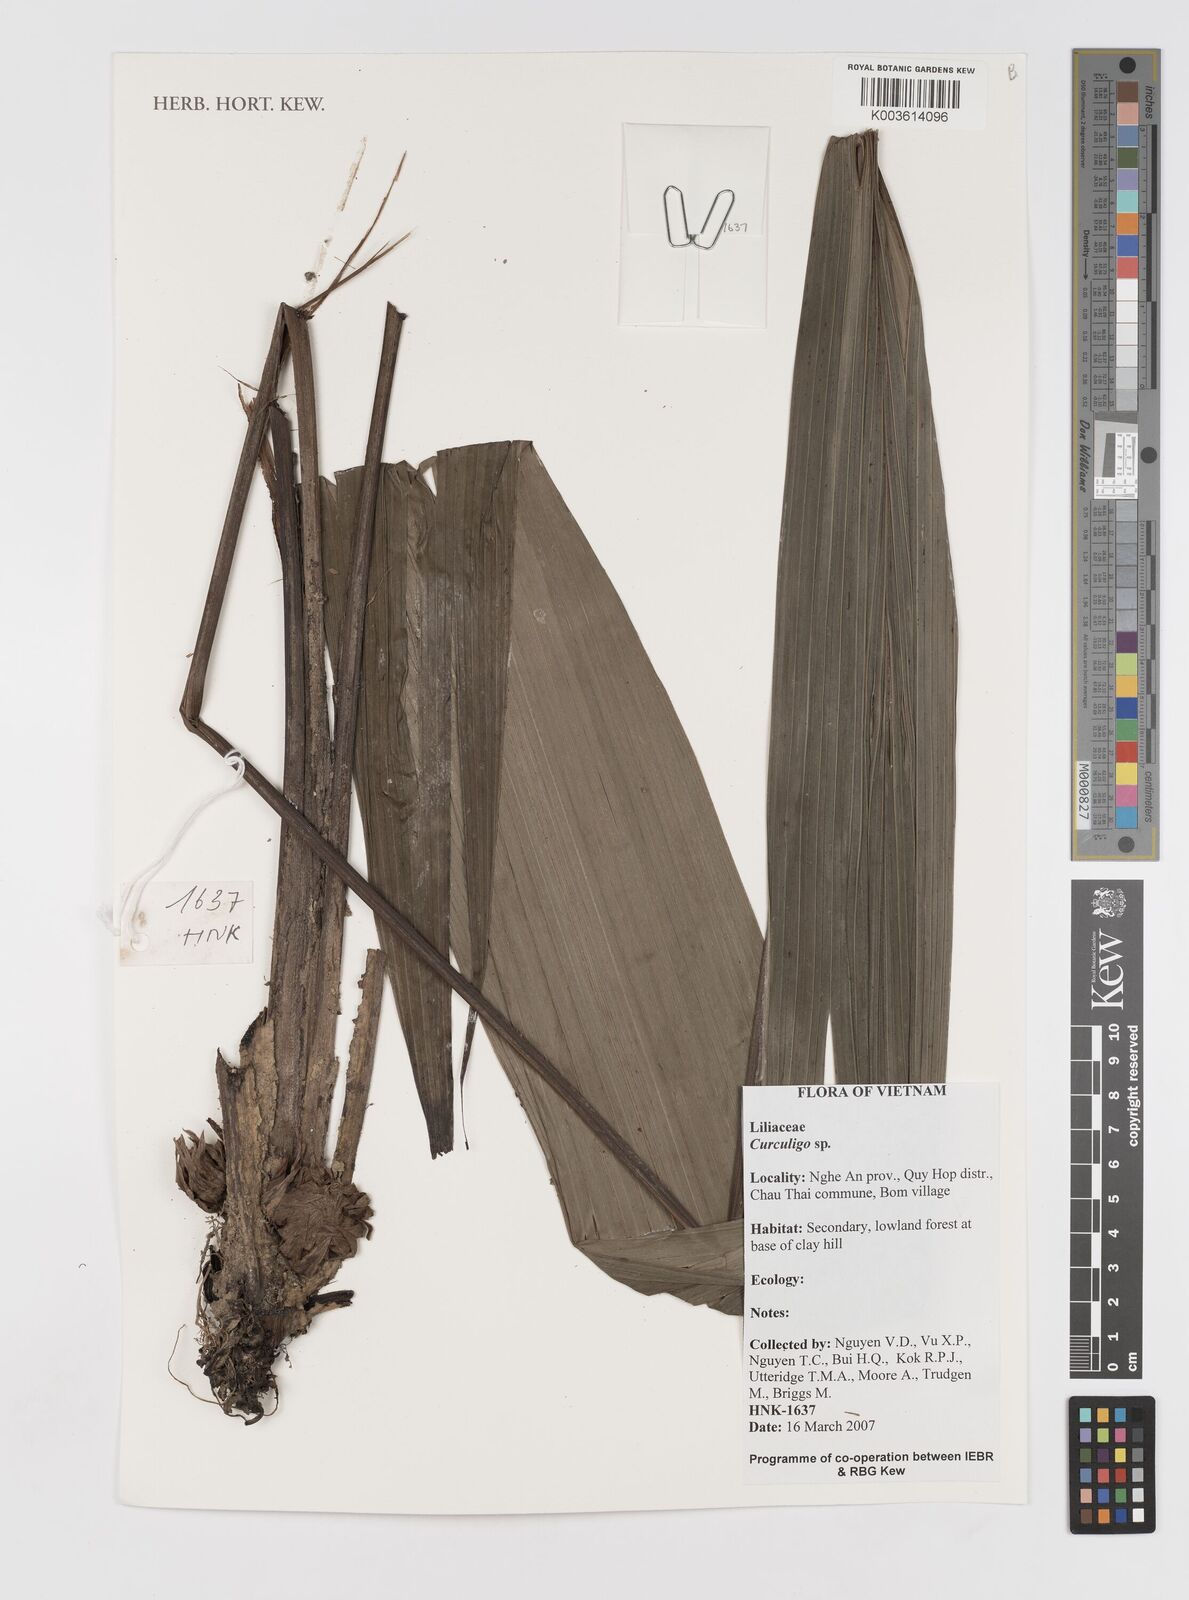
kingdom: Plantae
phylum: Tracheophyta
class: Liliopsida
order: Asparagales
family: Hypoxidaceae
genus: Curculigo
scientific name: Curculigo
